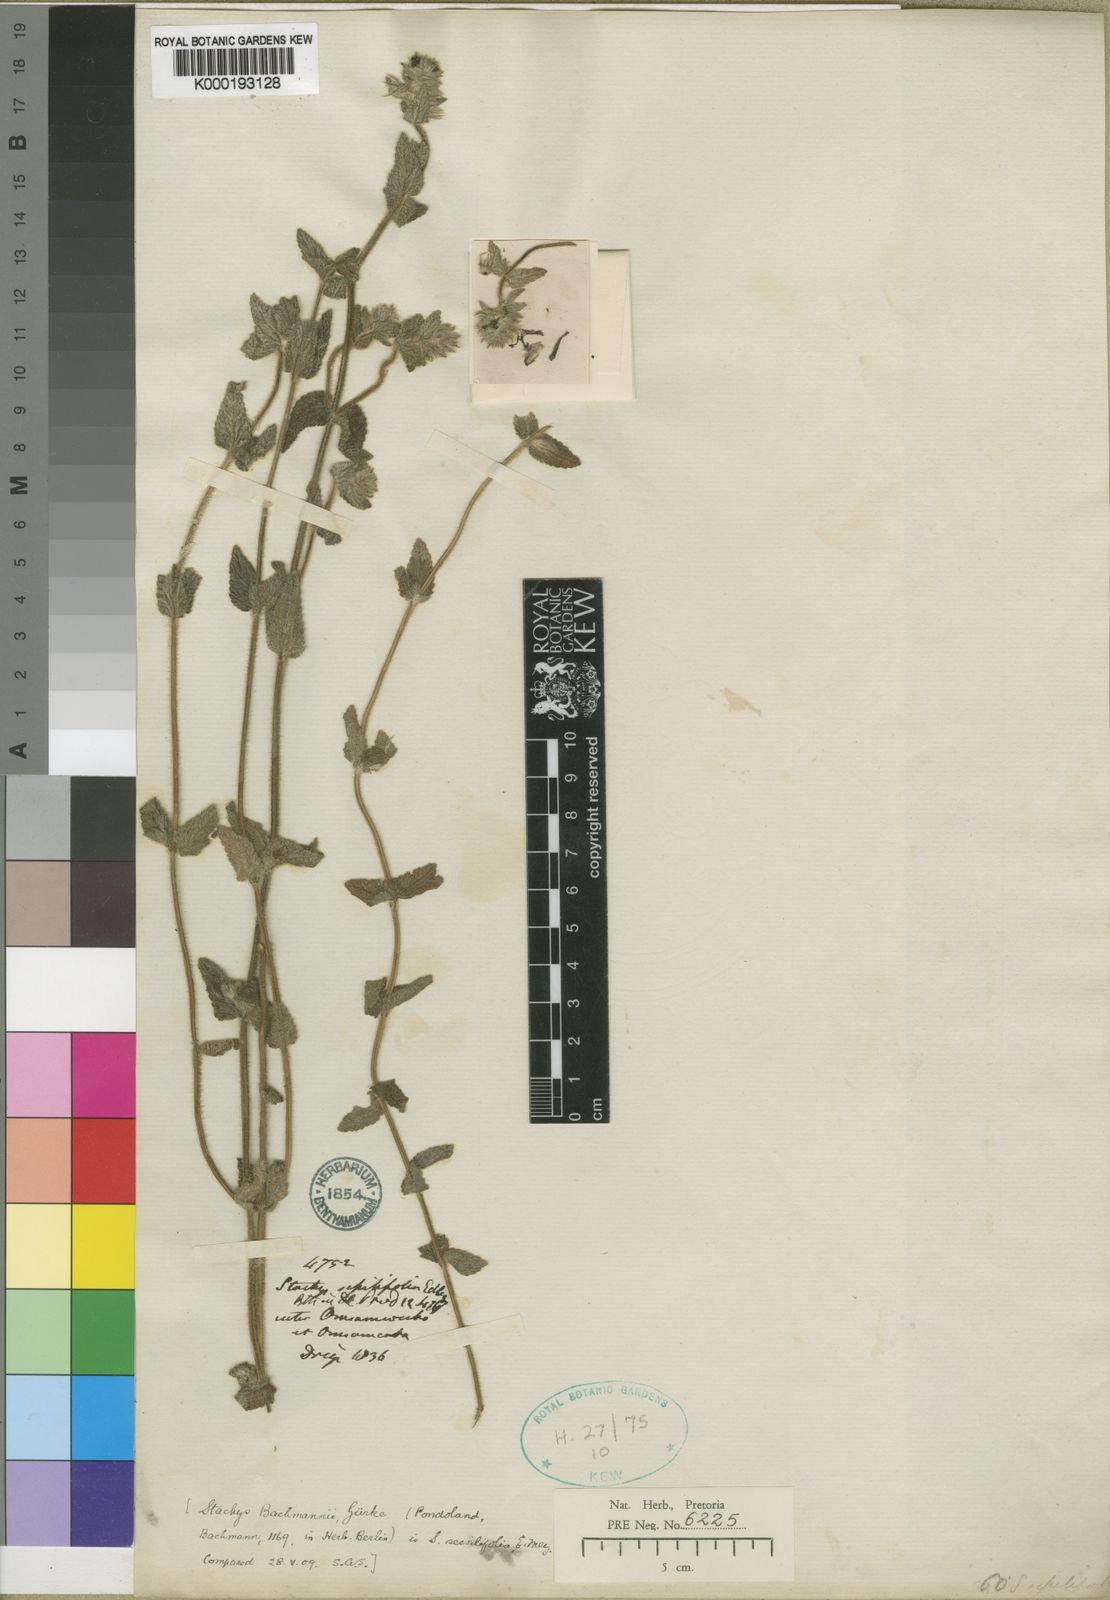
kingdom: Plantae
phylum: Tracheophyta
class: Magnoliopsida
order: Lamiales
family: Lamiaceae
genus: Stachys
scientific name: Stachys sessilifolia
